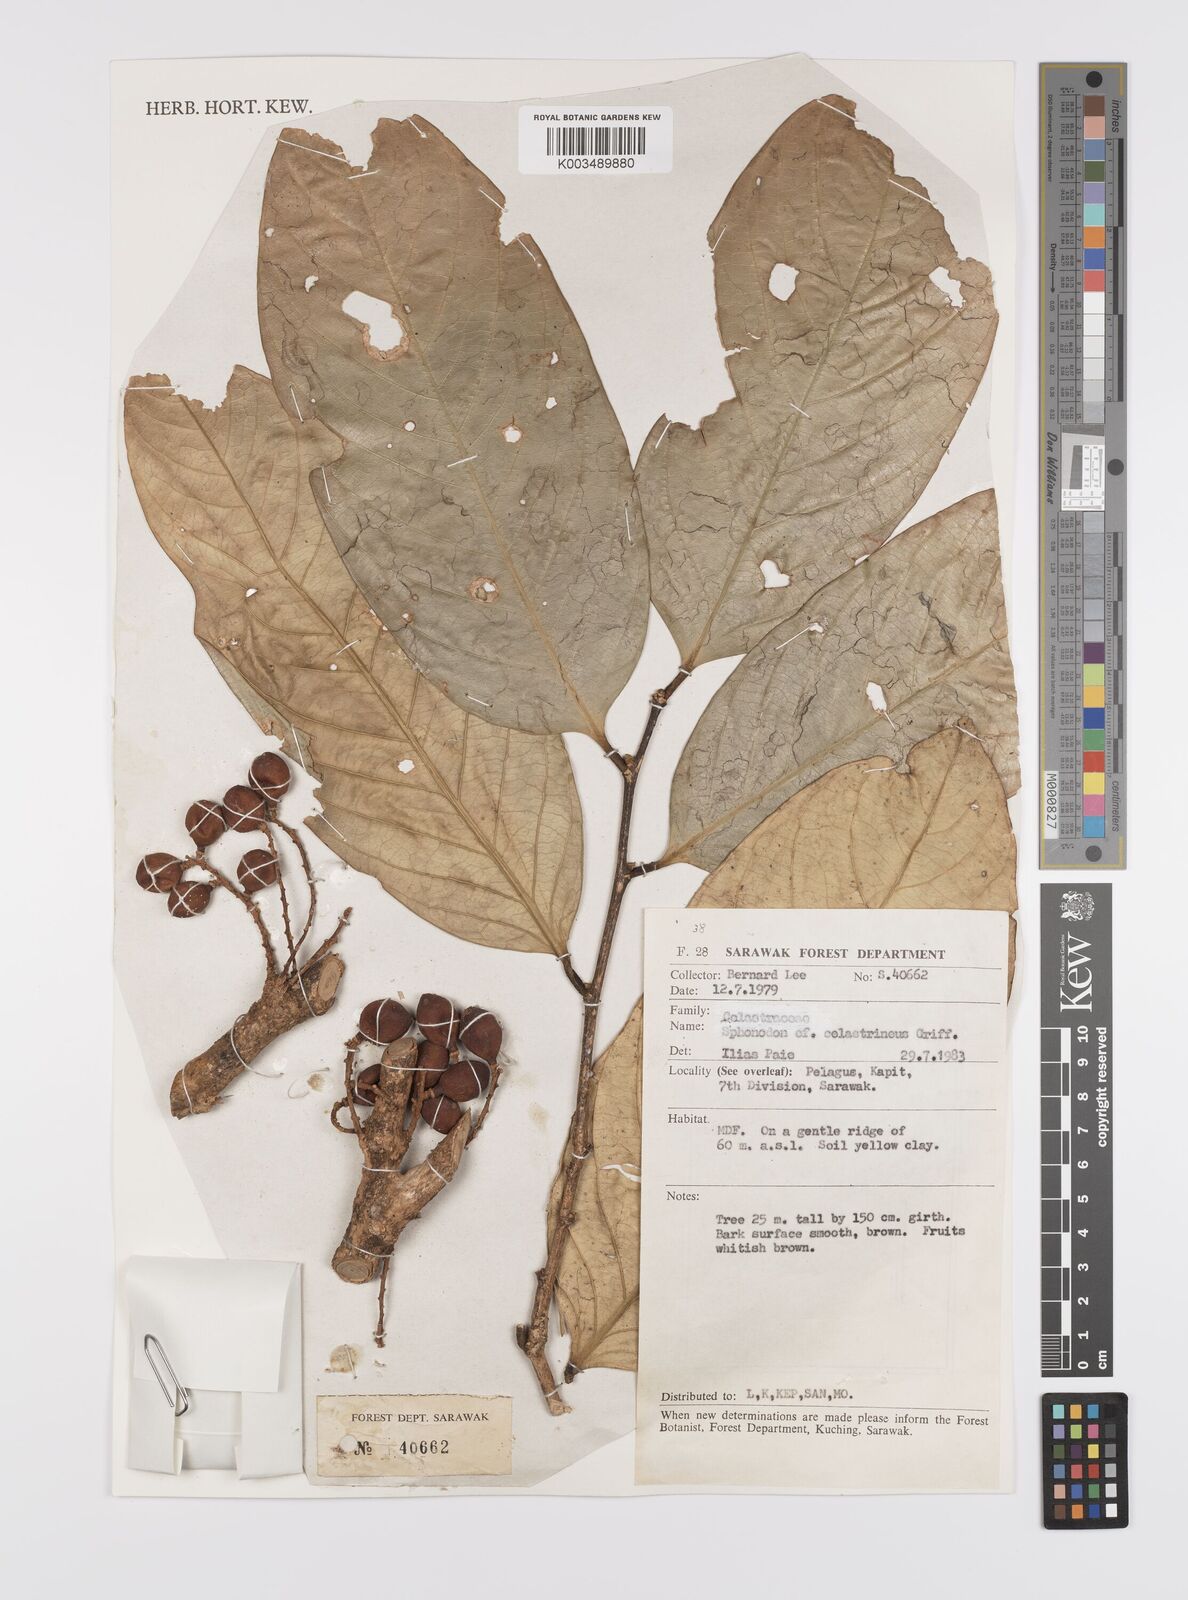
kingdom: Plantae
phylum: Tracheophyta
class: Magnoliopsida
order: Celastrales
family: Celastraceae
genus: Siphonodon
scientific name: Siphonodon celastrineus
